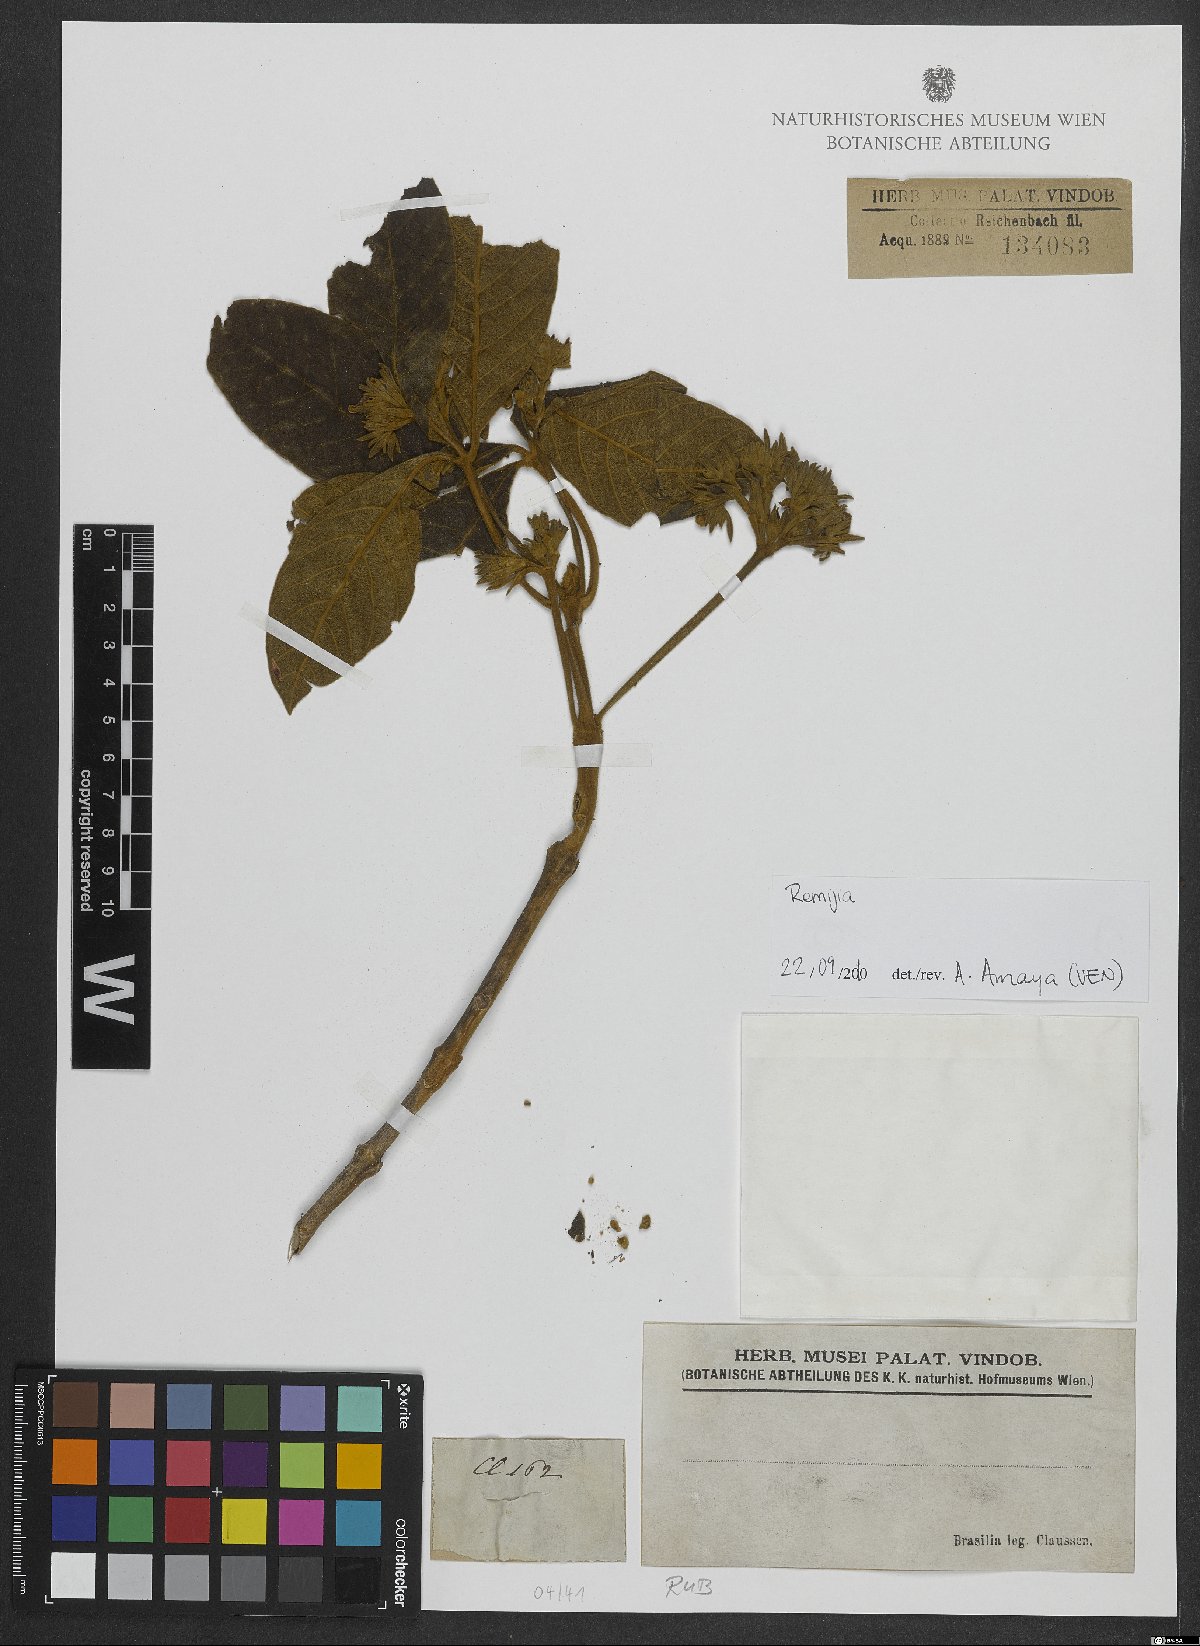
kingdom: Plantae
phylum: Tracheophyta
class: Magnoliopsida
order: Gentianales
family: Rubiaceae
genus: Remijia
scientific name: Remijia ulei
